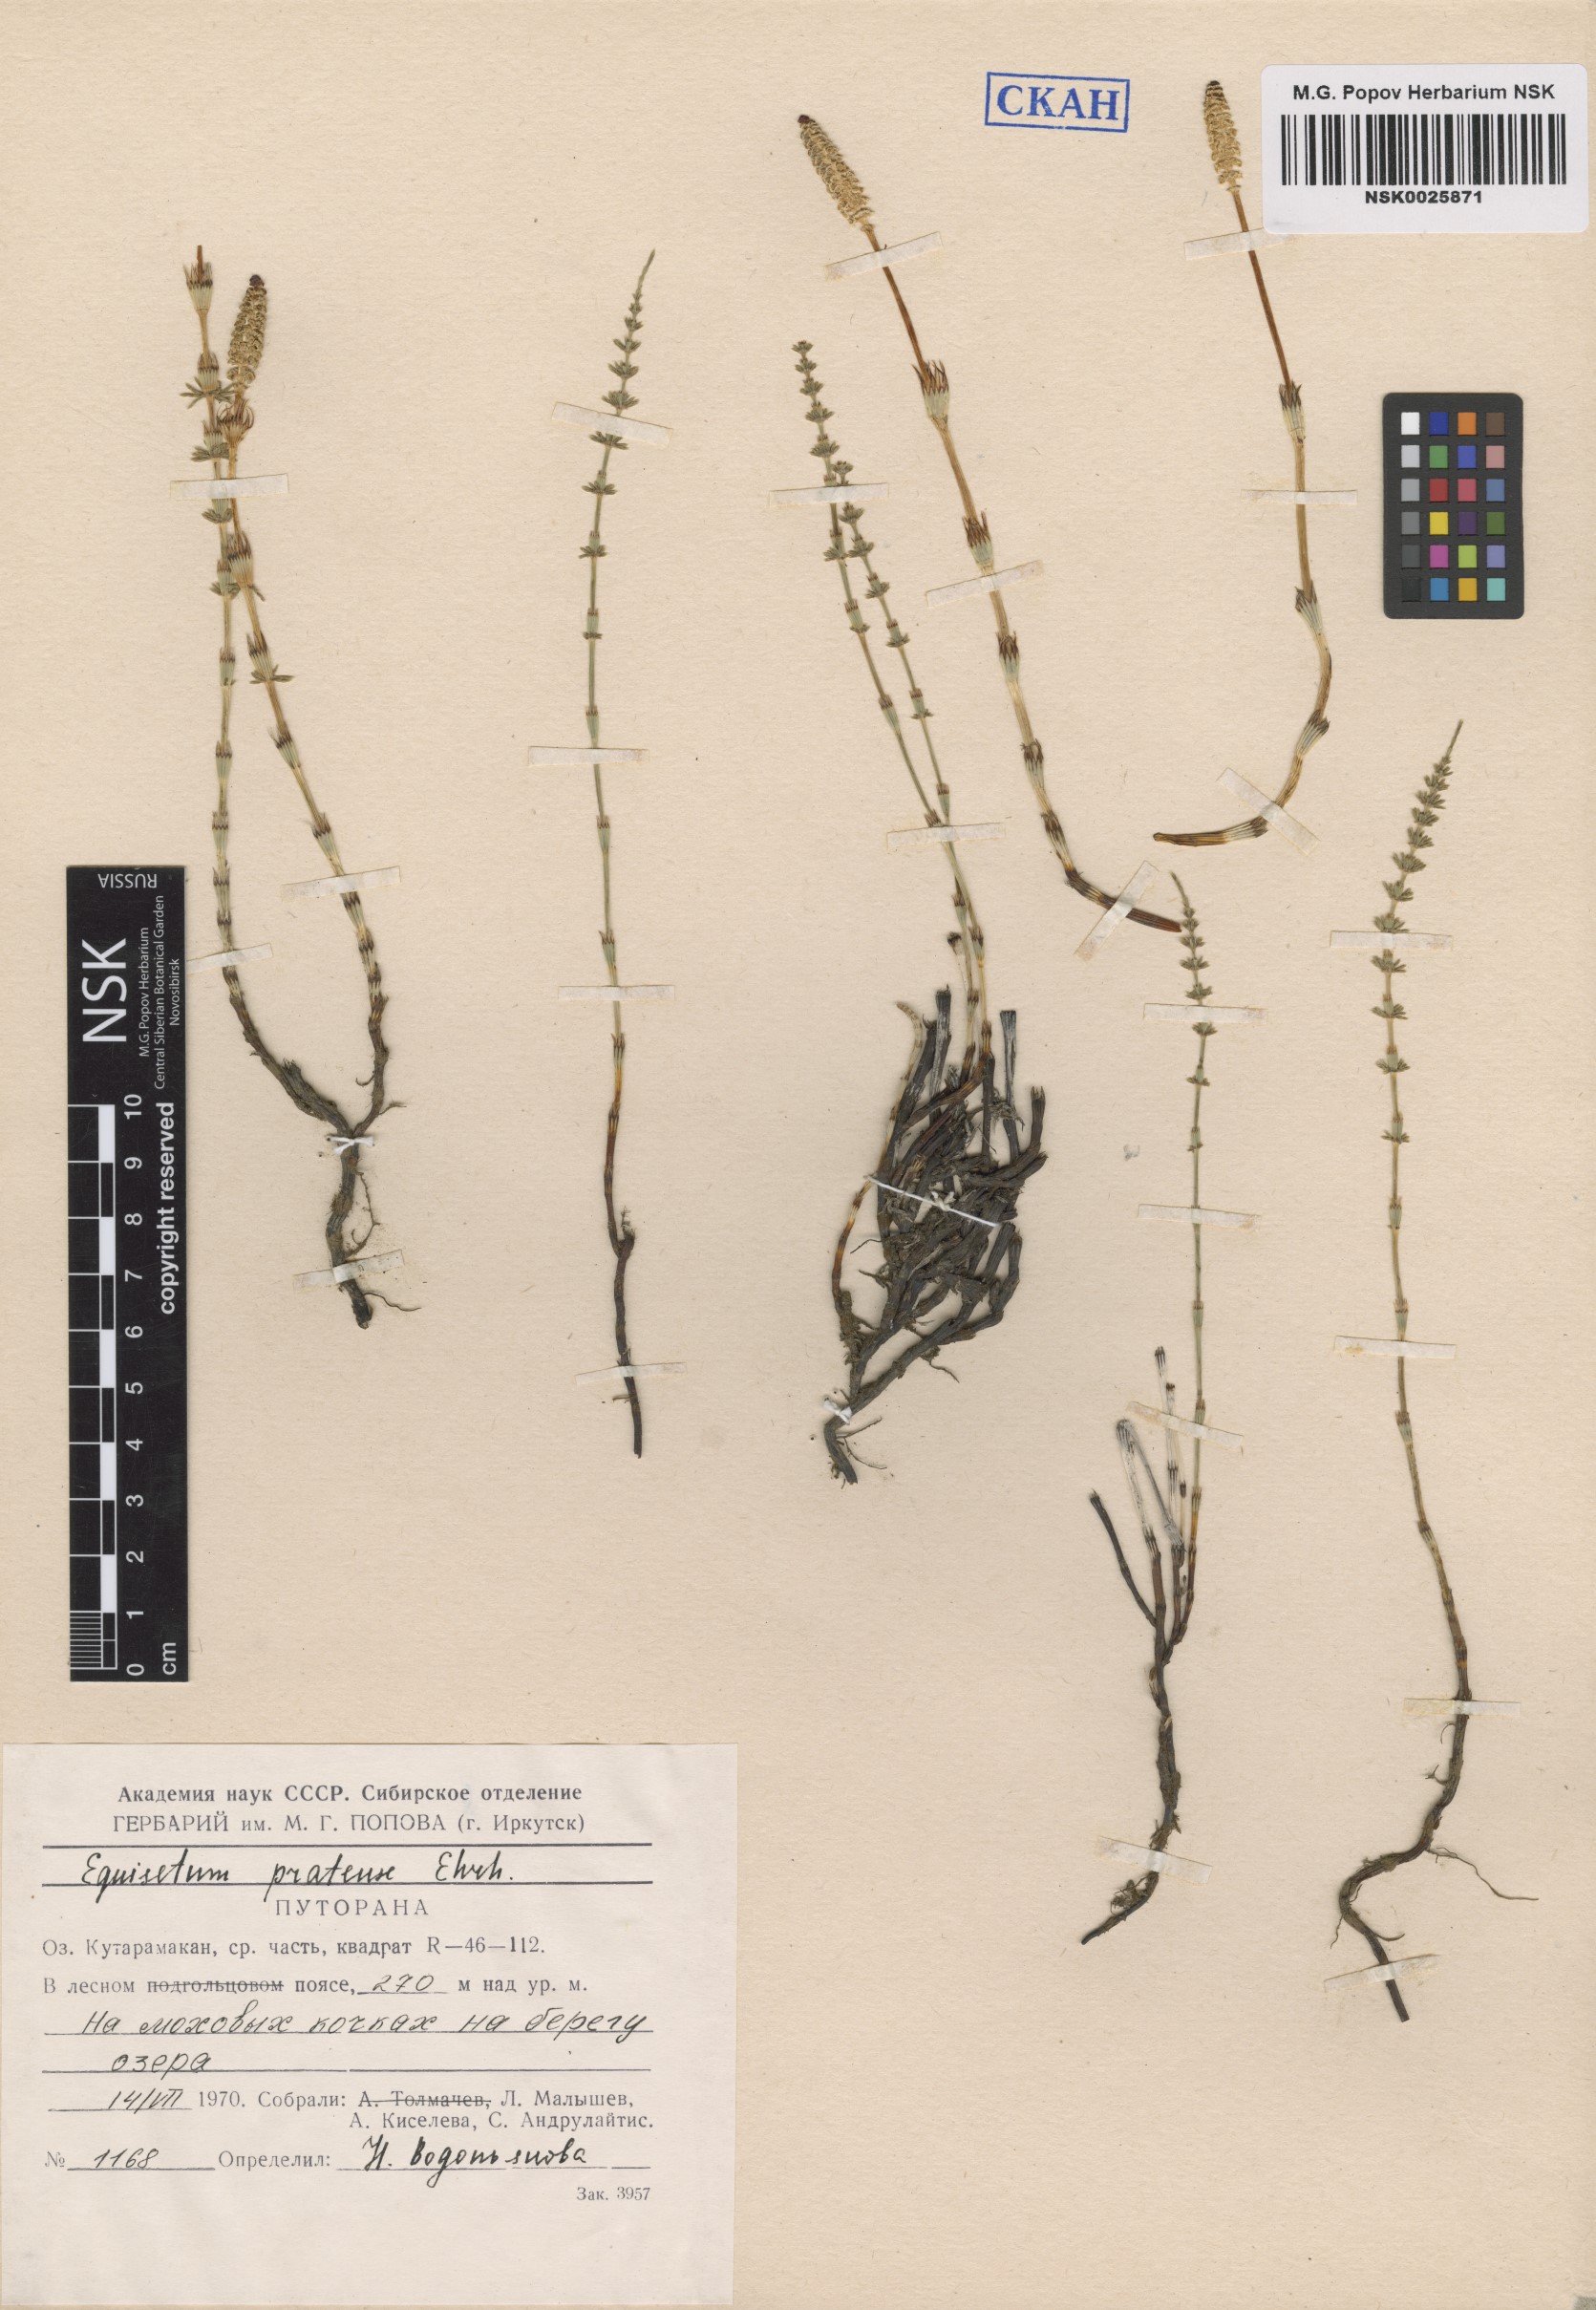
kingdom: Plantae
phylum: Tracheophyta
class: Polypodiopsida
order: Equisetales
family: Equisetaceae
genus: Equisetum
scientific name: Equisetum pratense
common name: Meadow horsetail
